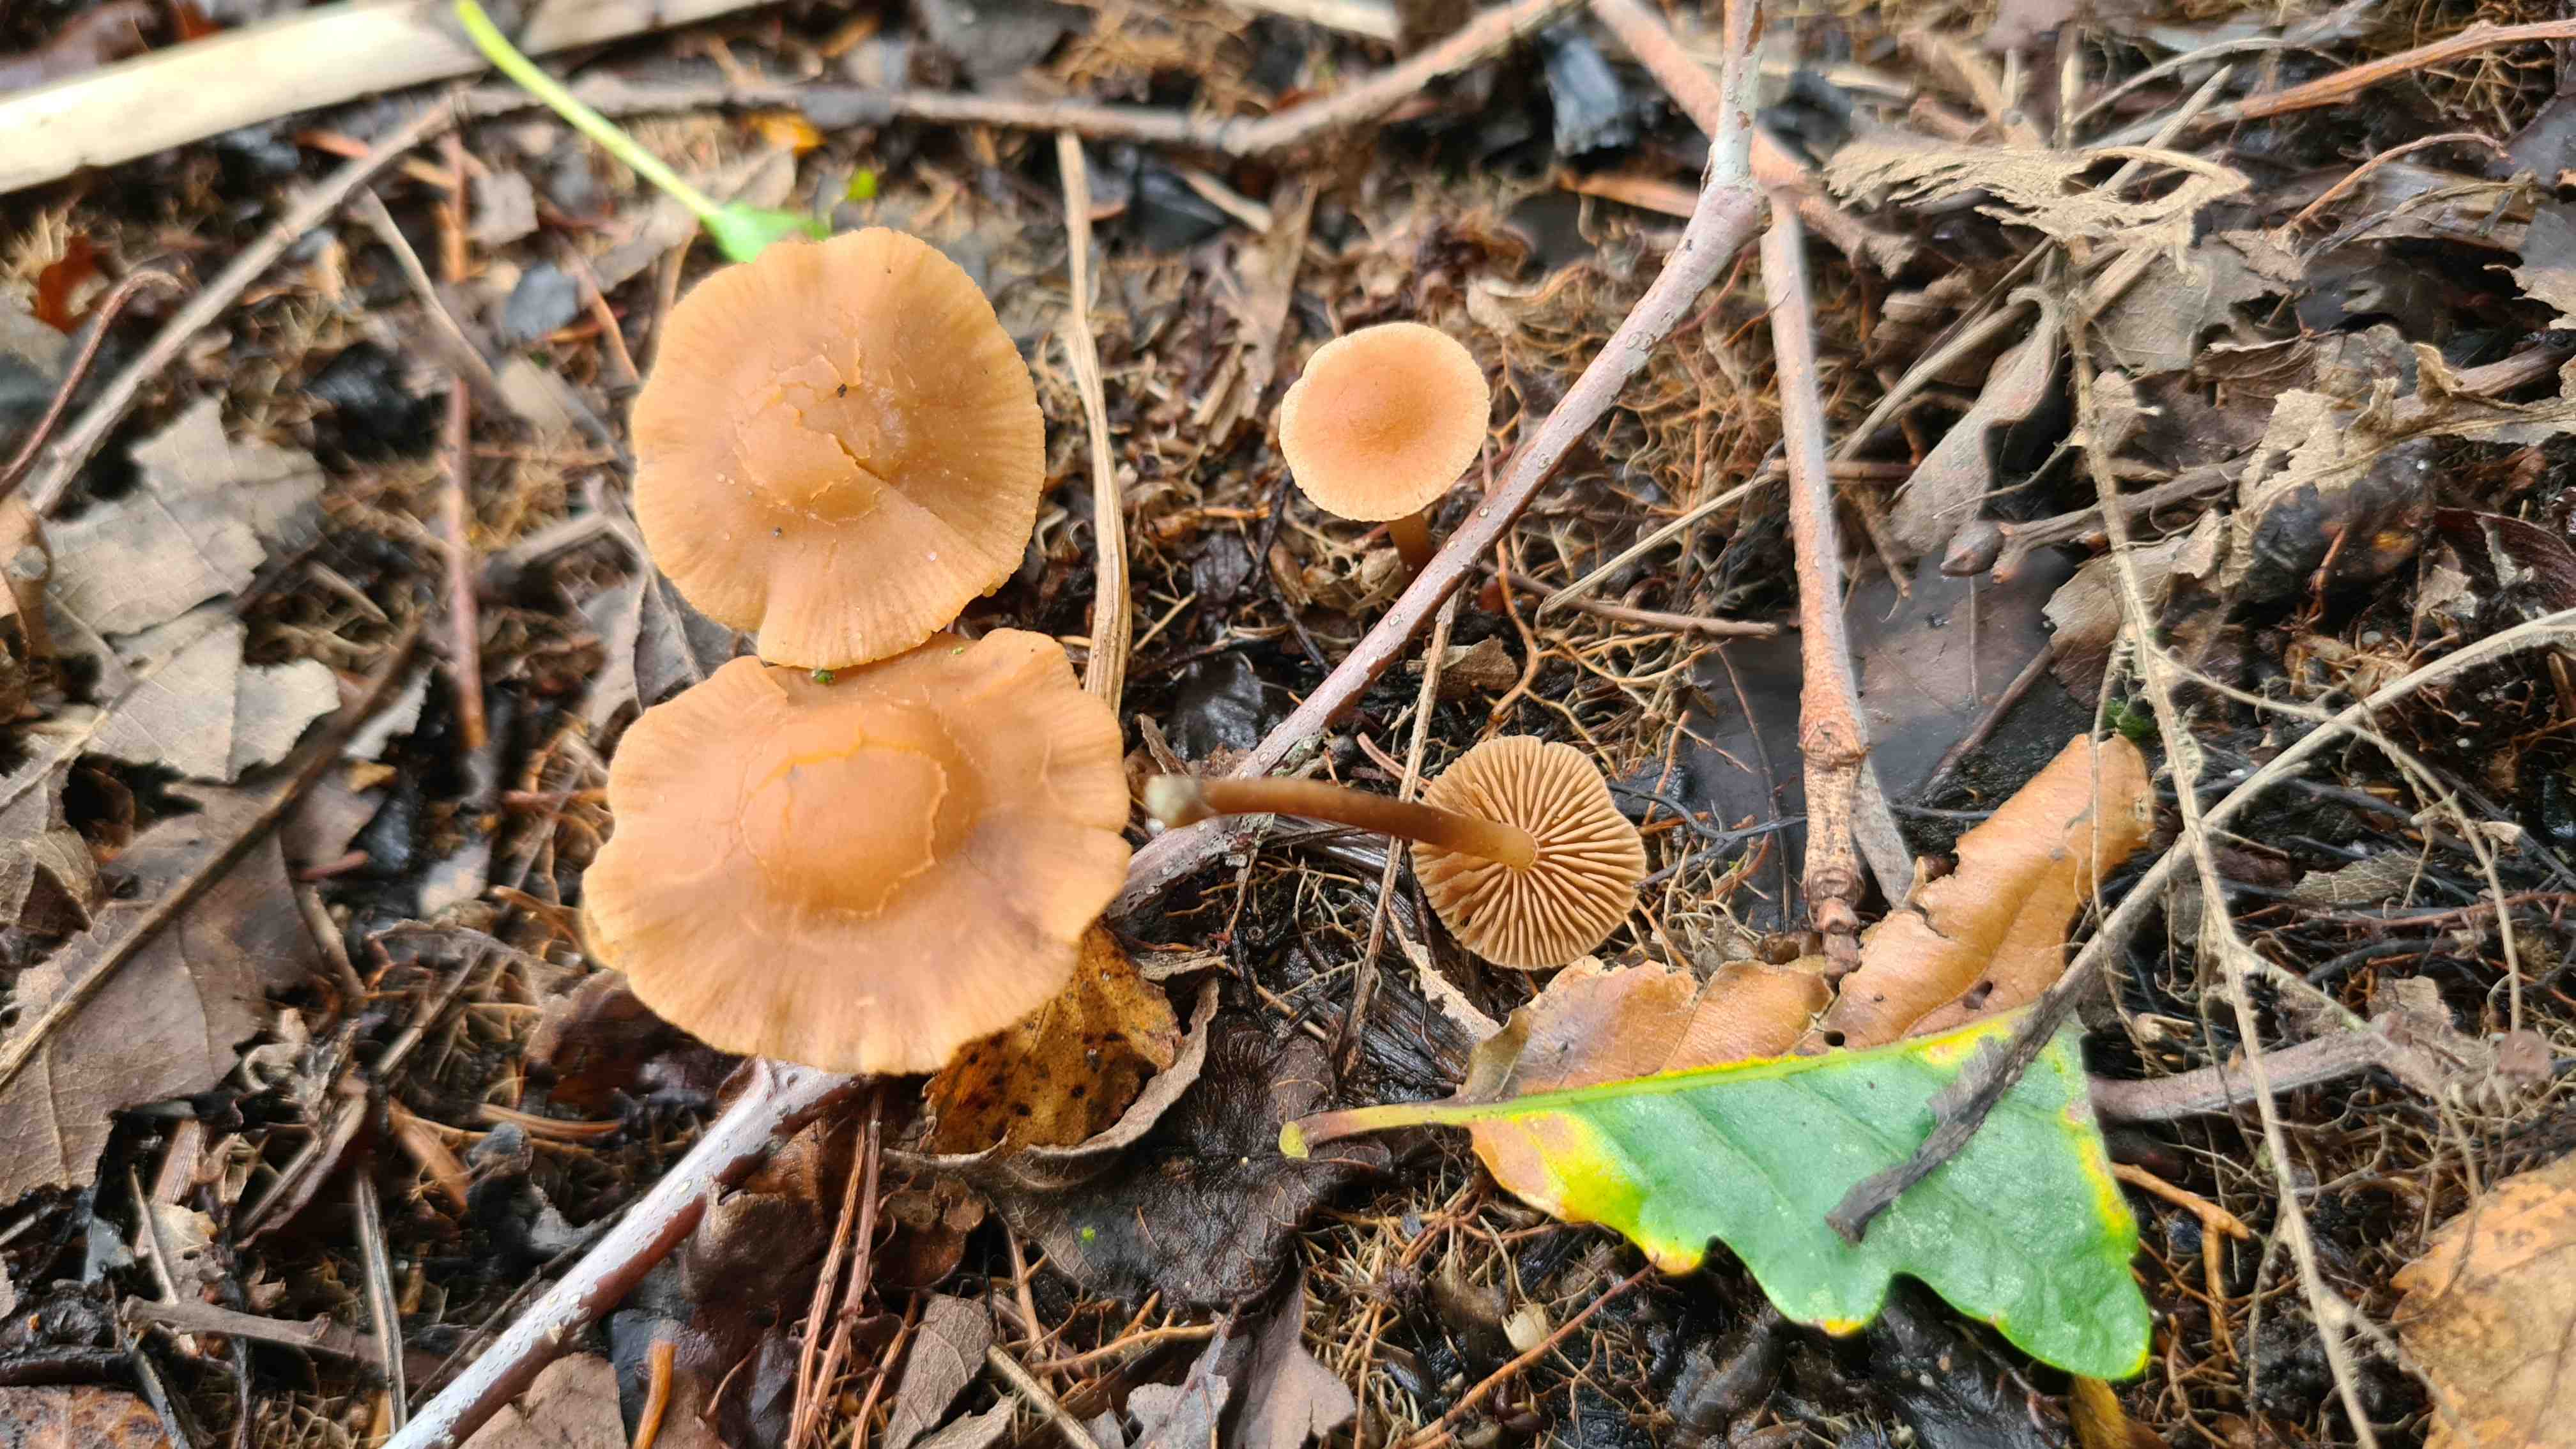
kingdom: Fungi
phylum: Basidiomycota
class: Agaricomycetes
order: Agaricales
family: Hymenogastraceae
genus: Naucoria
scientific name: Naucoria scolecina
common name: mørk elle-knaphat
